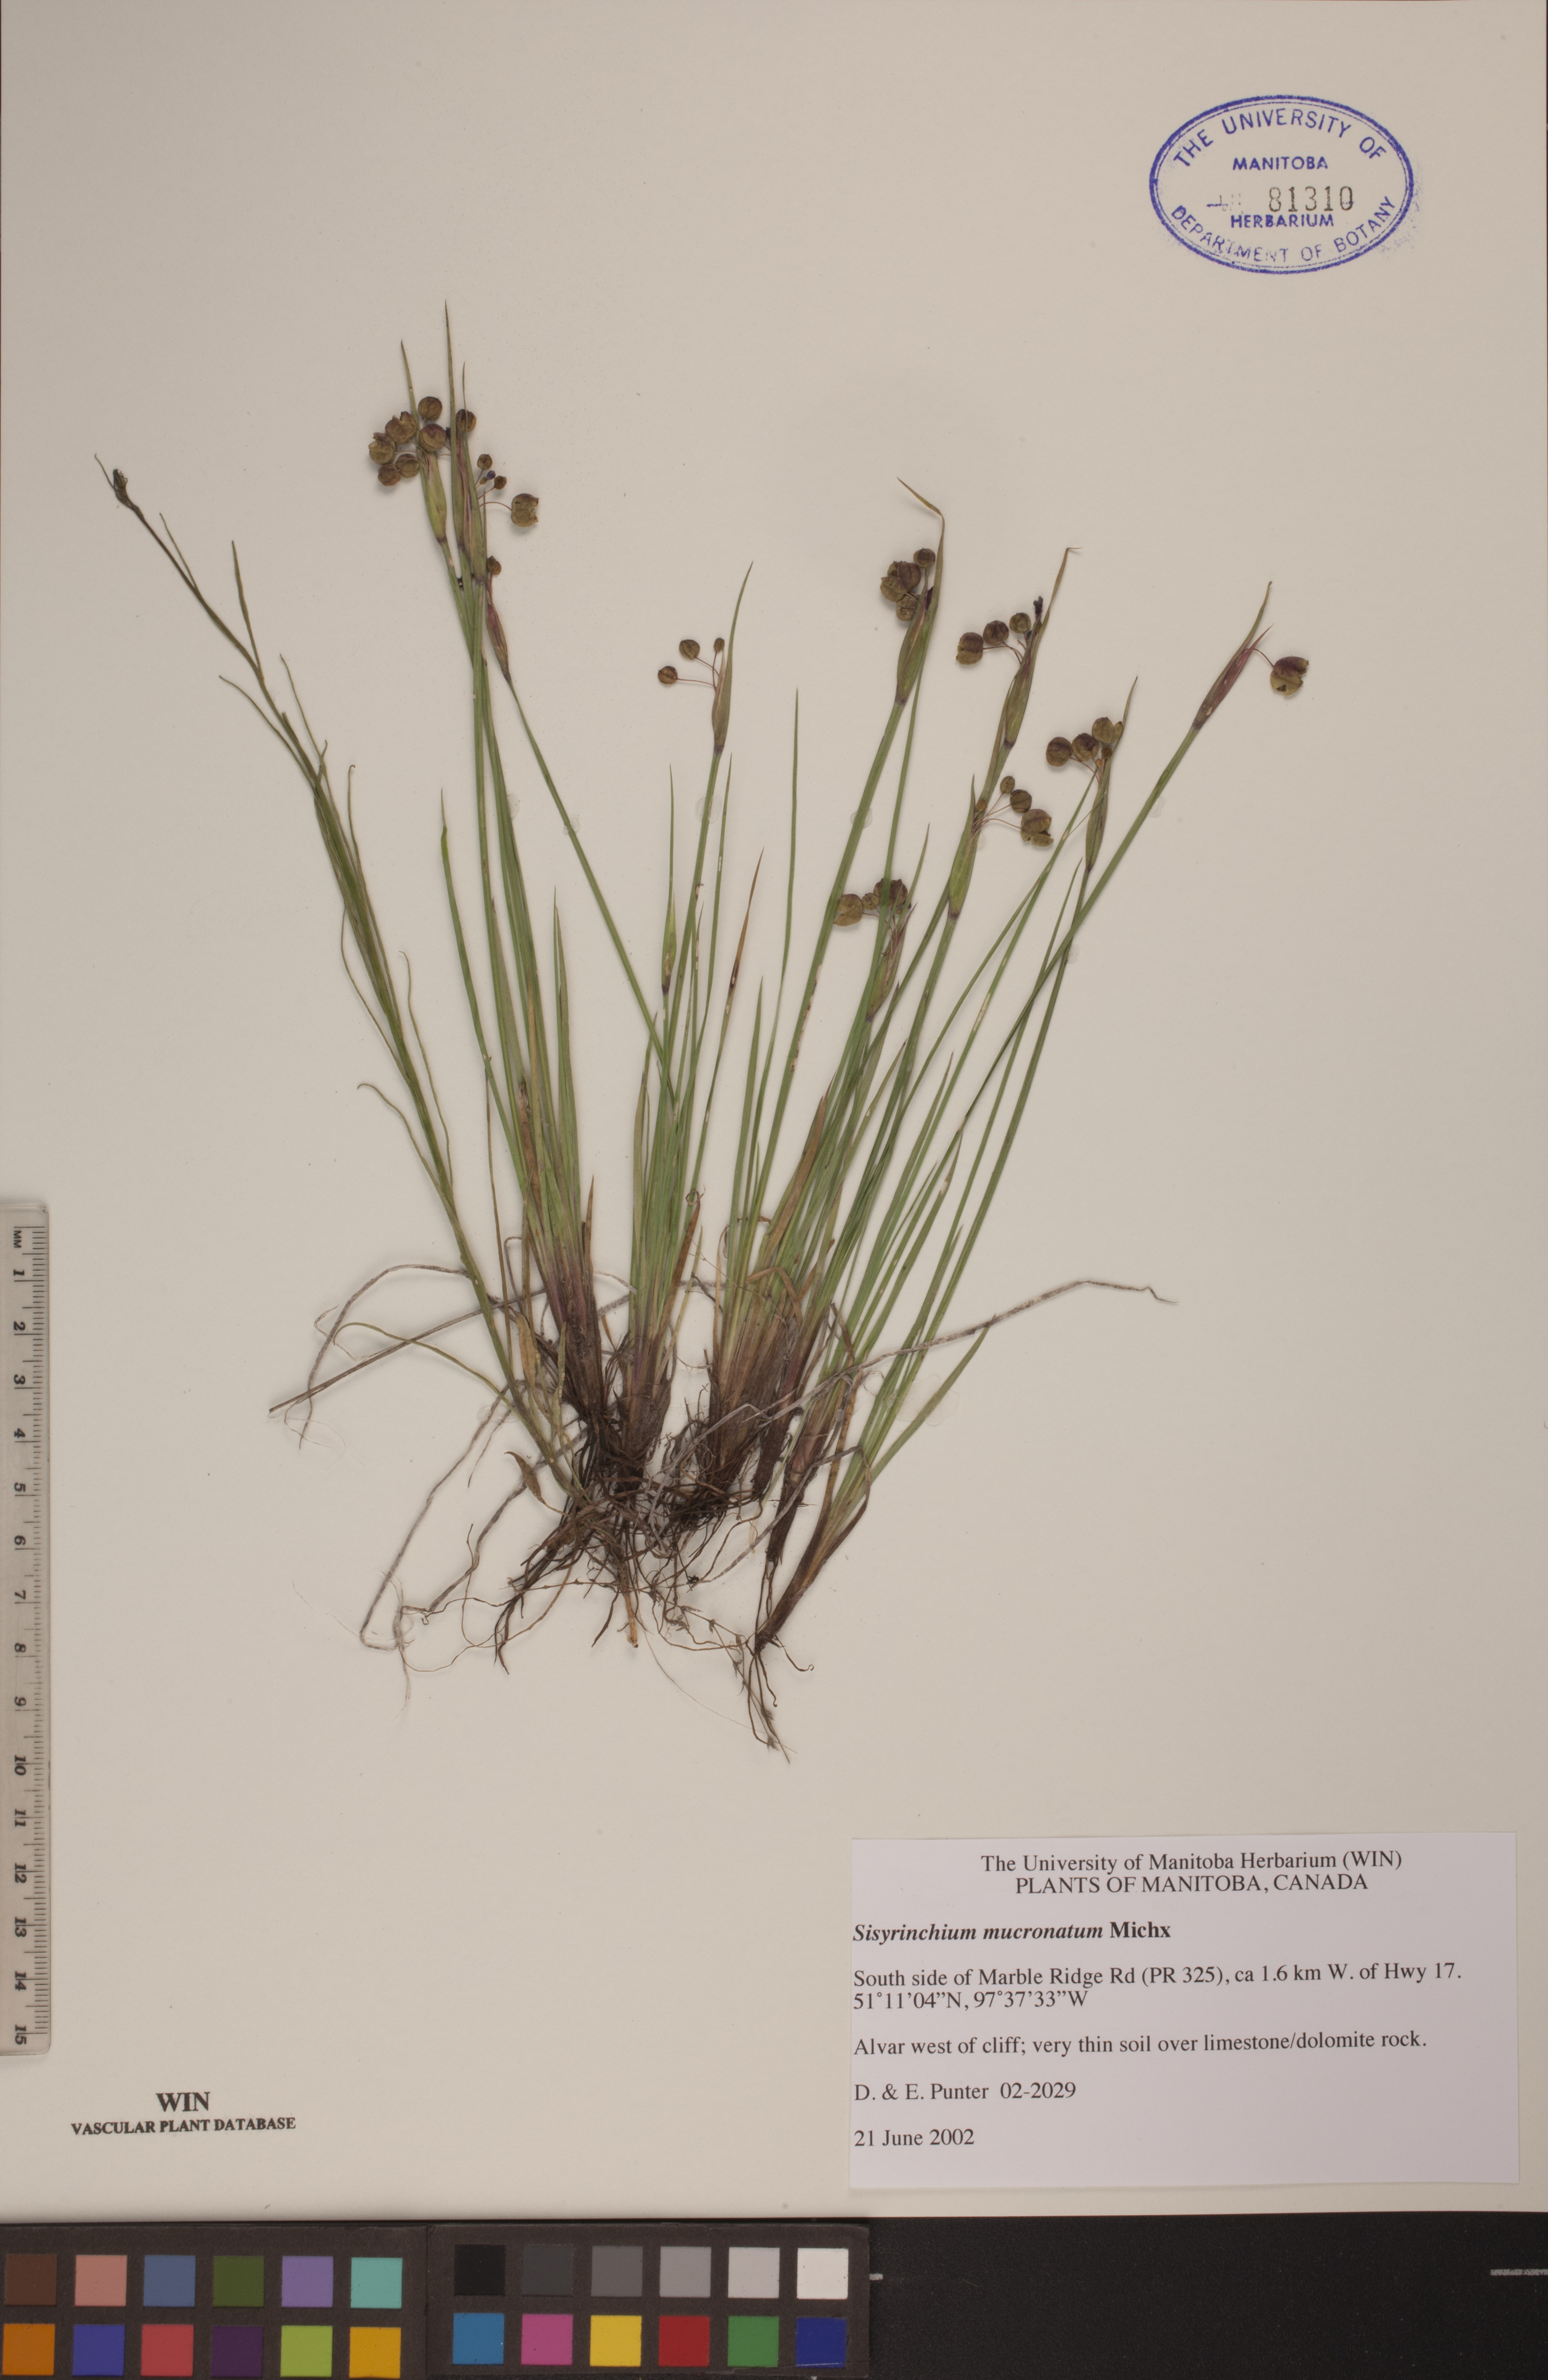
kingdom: Plantae
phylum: Tracheophyta
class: Liliopsida
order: Asparagales
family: Iridaceae
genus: Sisyrinchium
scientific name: Sisyrinchium mucronatum
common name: Eastern blue-eyed-grass
